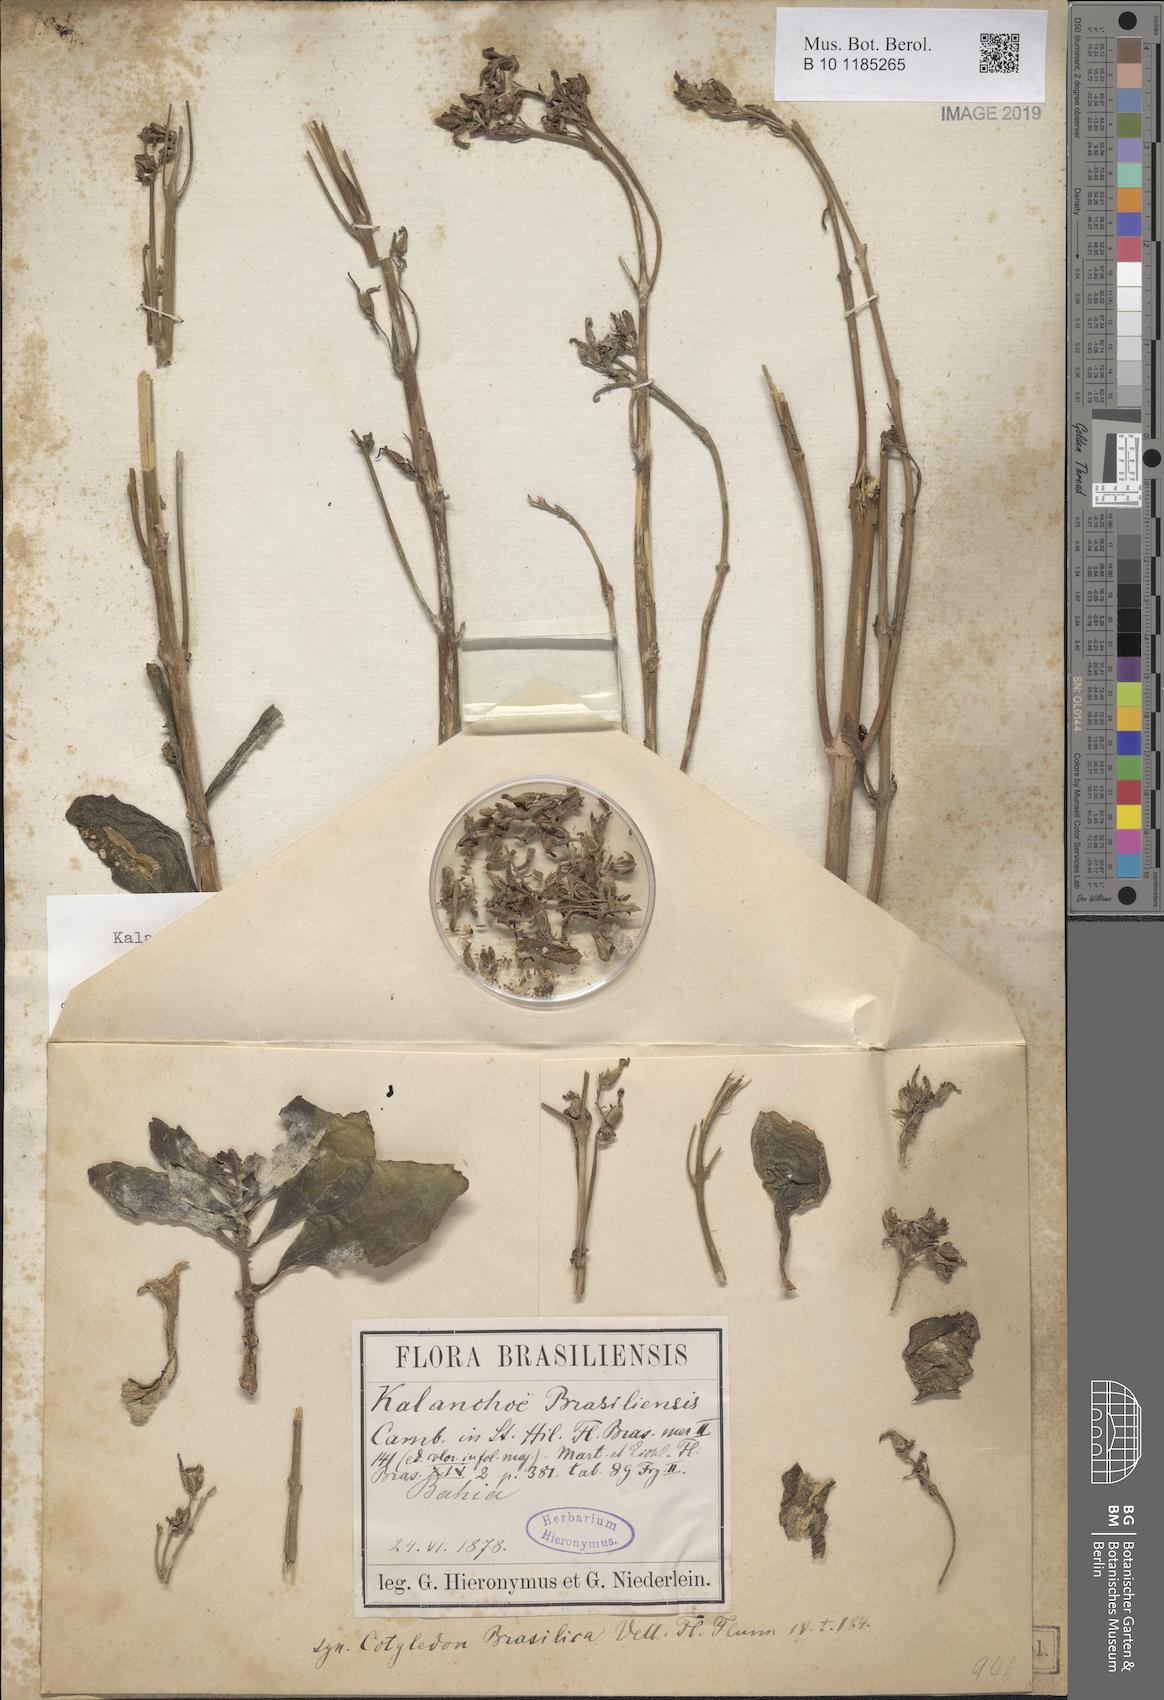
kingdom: Plantae
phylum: Tracheophyta
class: Magnoliopsida
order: Saxifragales
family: Crassulaceae
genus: Kalanchoe
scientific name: Kalanchoe crenata
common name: Neverdie
